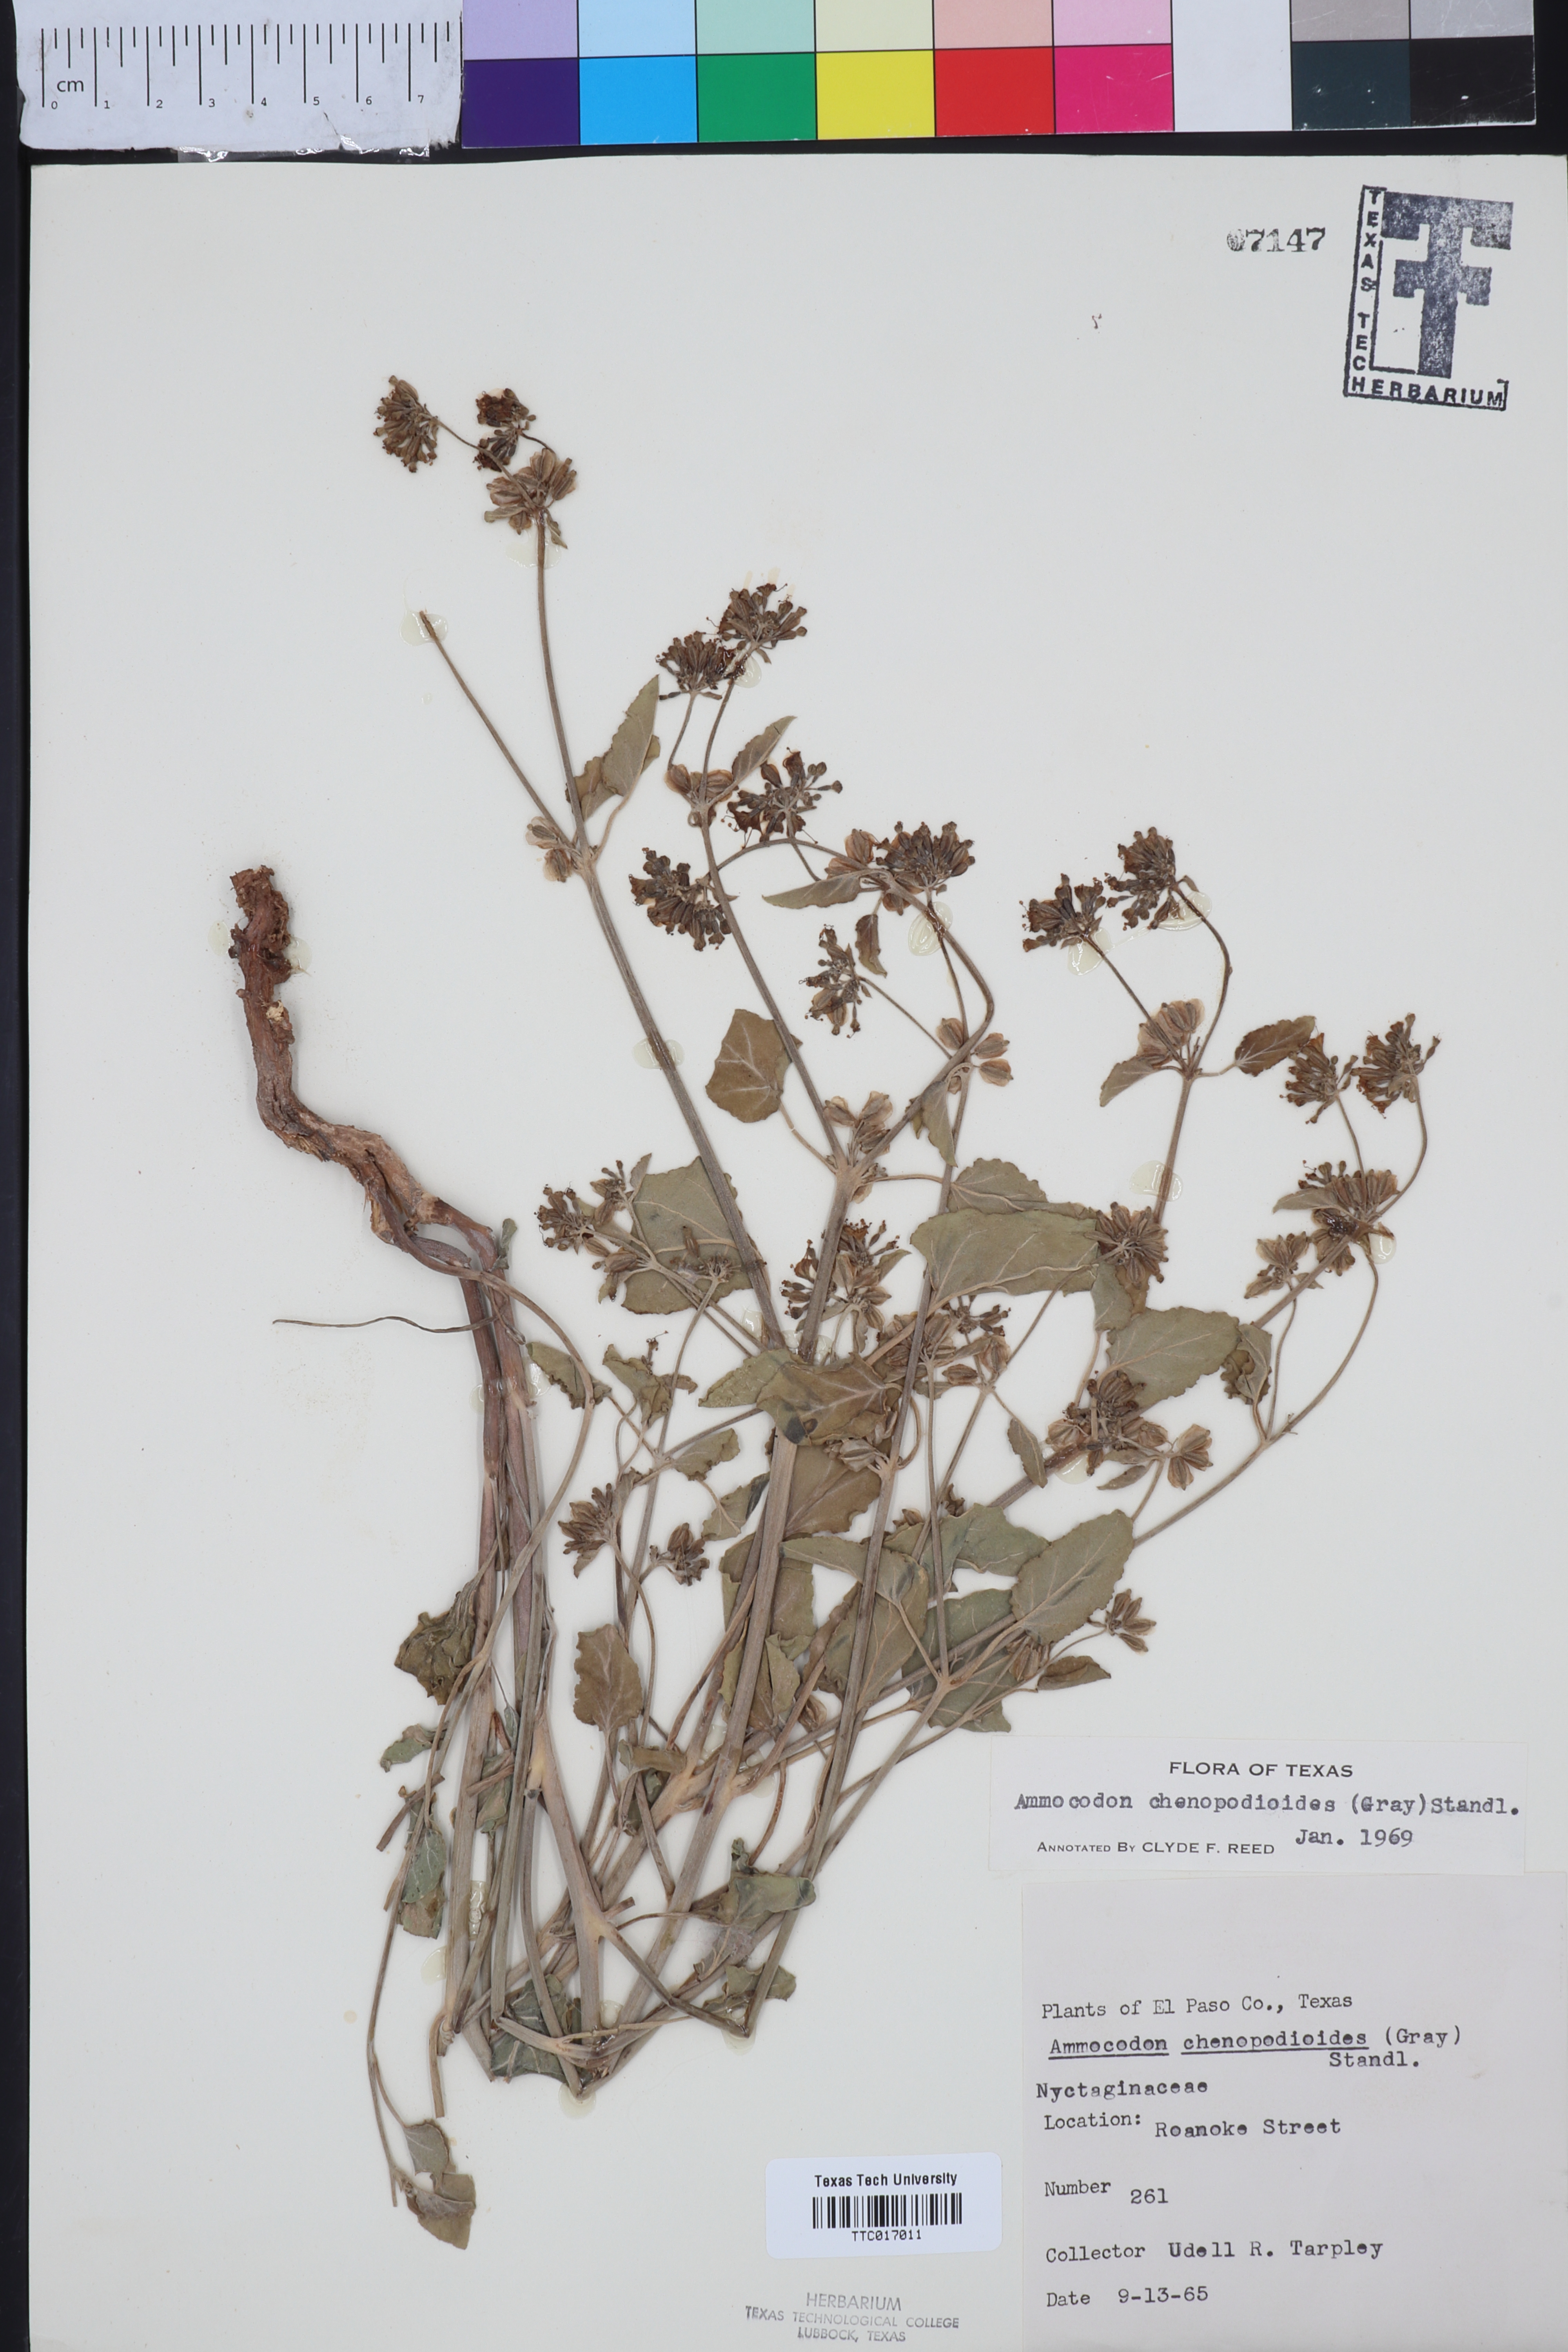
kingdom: Plantae
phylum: Tracheophyta
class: Magnoliopsida
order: Caryophyllales
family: Nyctaginaceae
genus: Acleisanthes
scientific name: Acleisanthes chenopodioides
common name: Goosefoot moonpod
